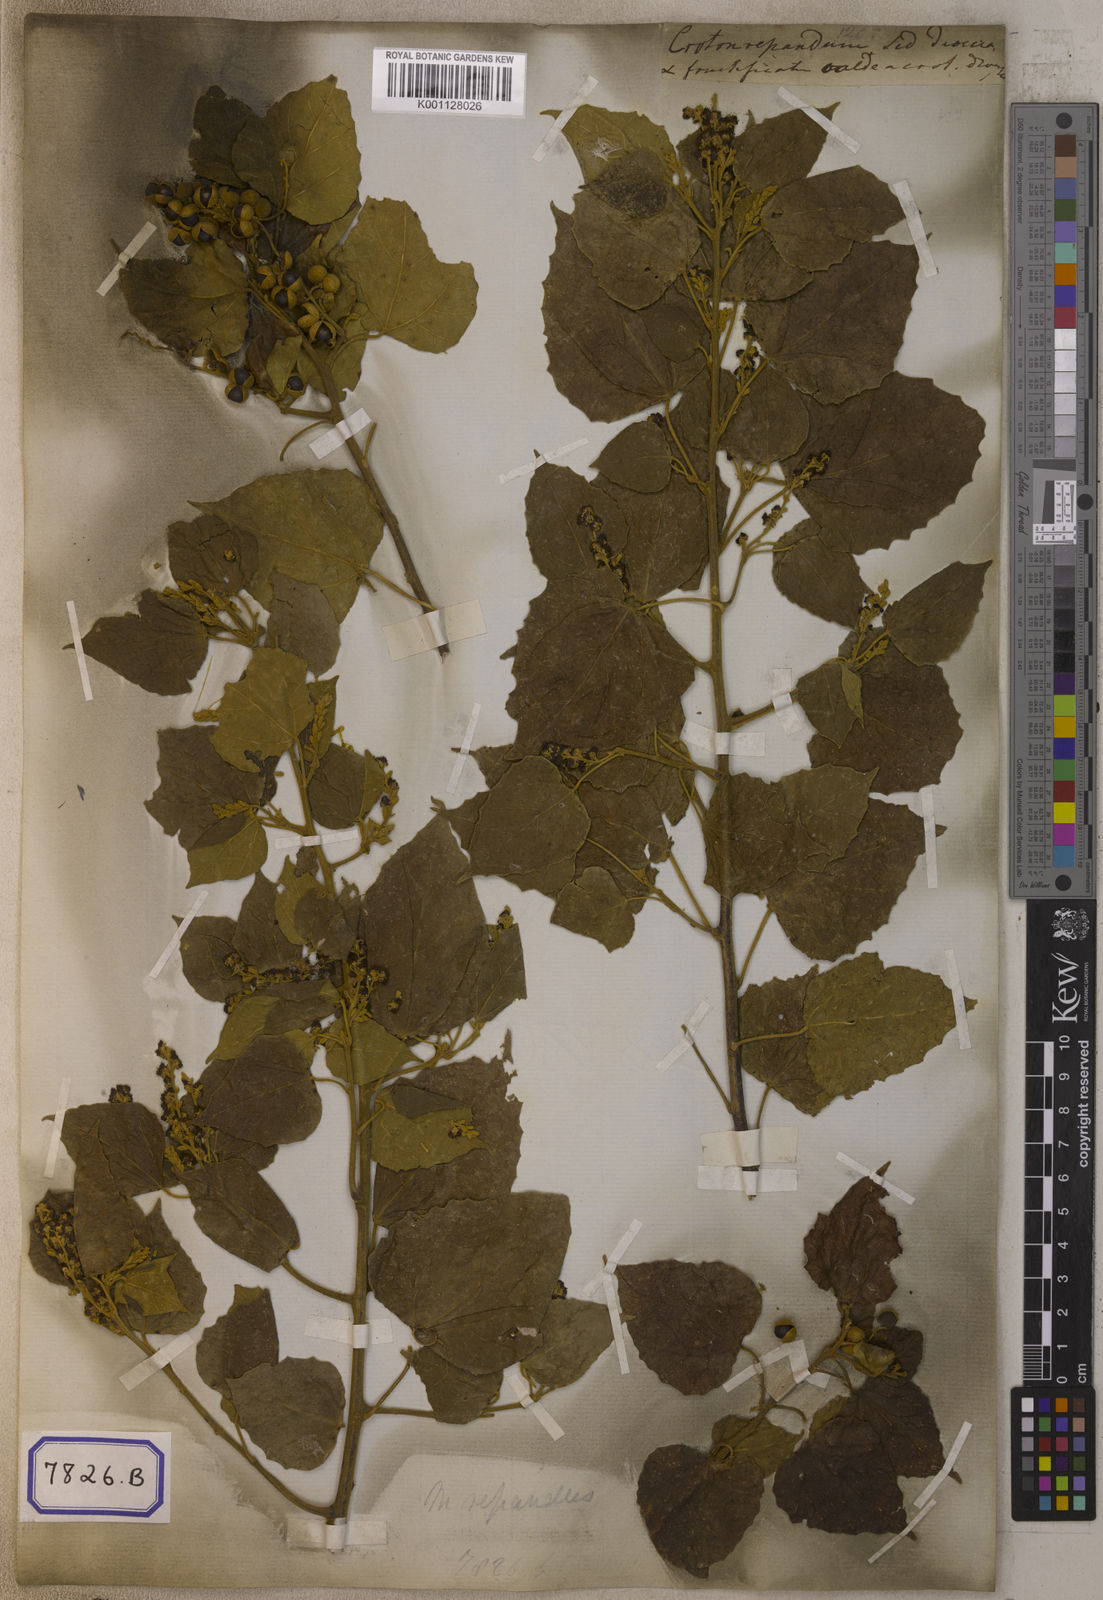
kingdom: Plantae
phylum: Tracheophyta
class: Magnoliopsida
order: Malpighiales
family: Euphorbiaceae
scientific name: Euphorbiaceae
